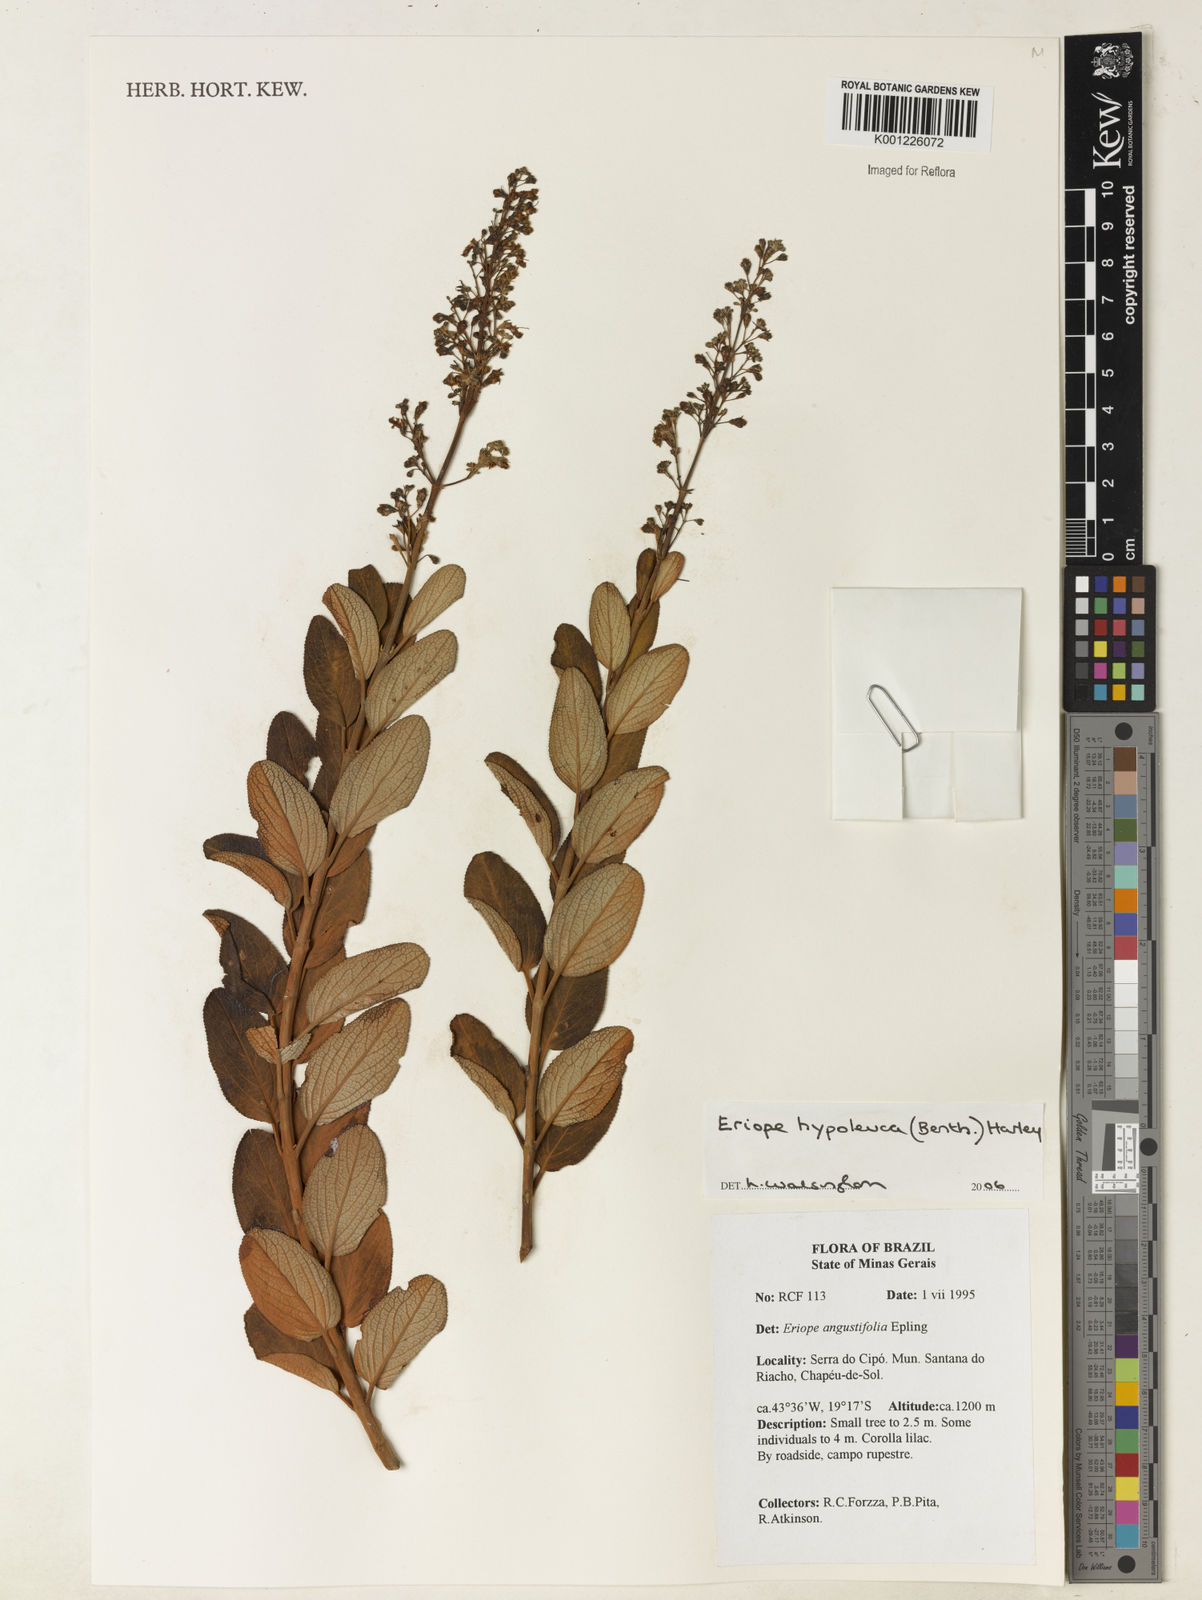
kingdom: Plantae
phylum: Tracheophyta
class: Magnoliopsida
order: Lamiales
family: Lamiaceae
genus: Eriope
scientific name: Eriope hypoleuca
